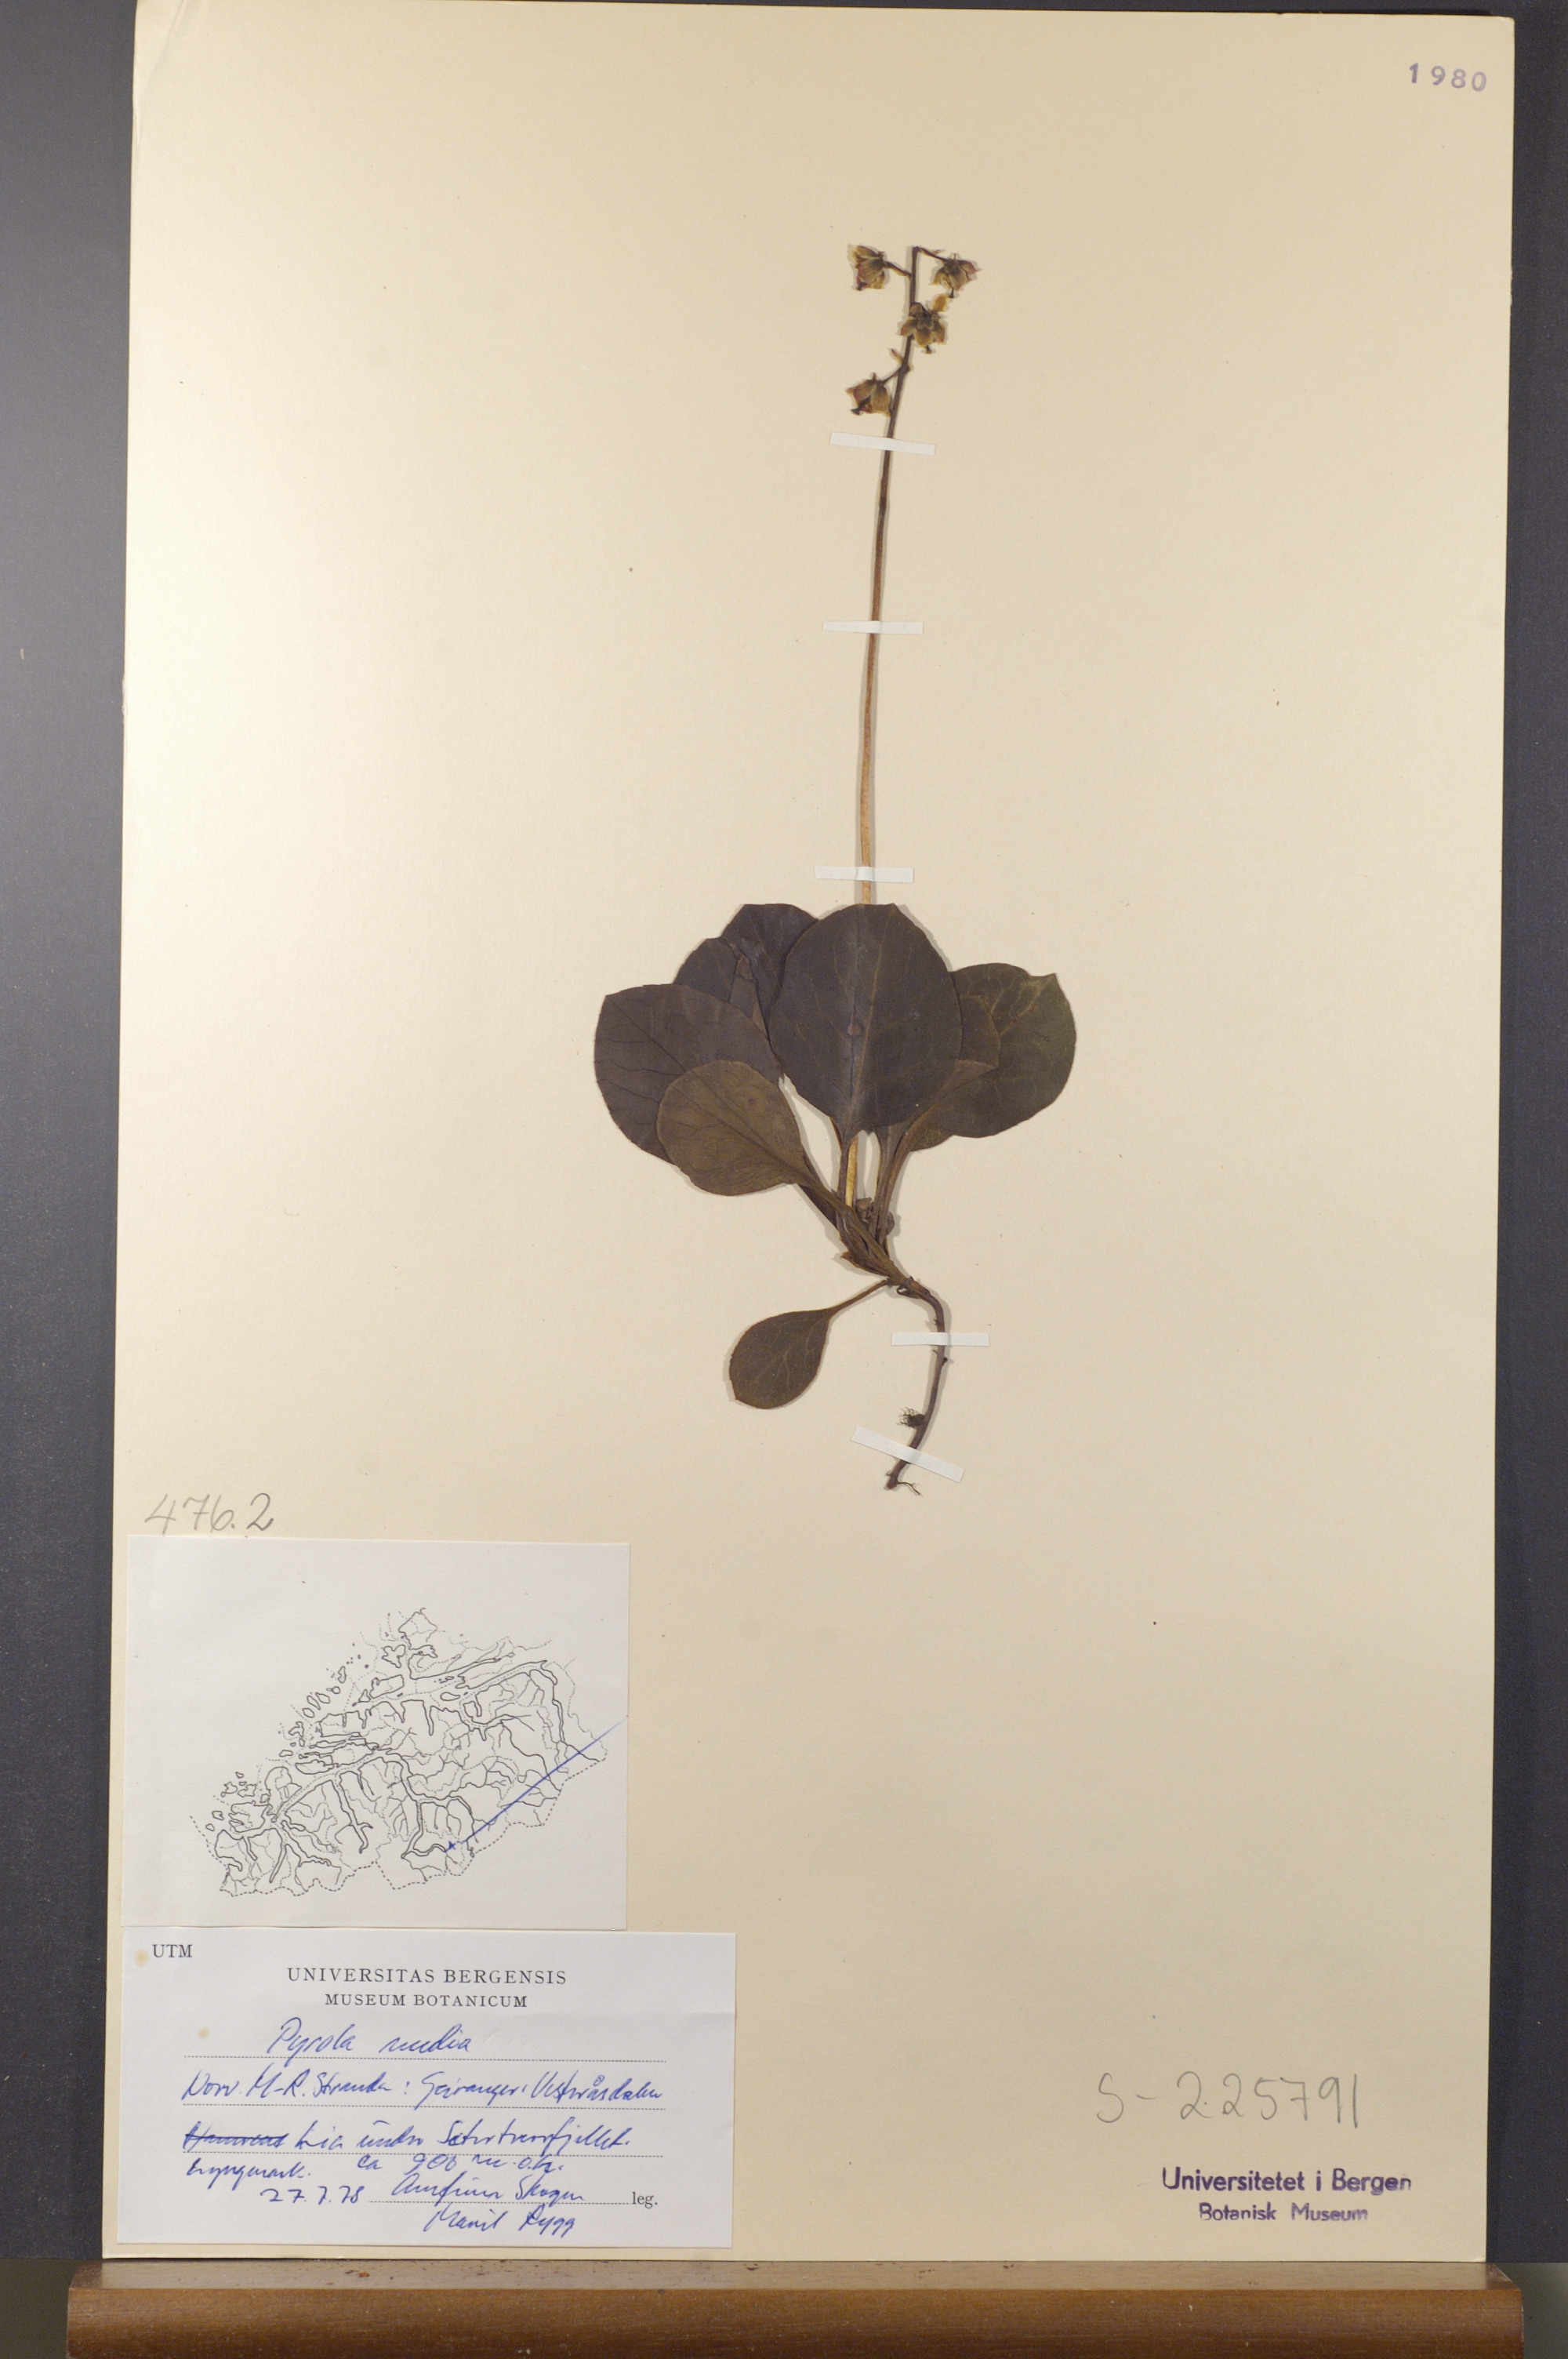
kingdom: Plantae
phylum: Tracheophyta
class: Magnoliopsida
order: Ericales
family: Ericaceae
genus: Pyrola
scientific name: Pyrola media
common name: Intermediate wintergreen
